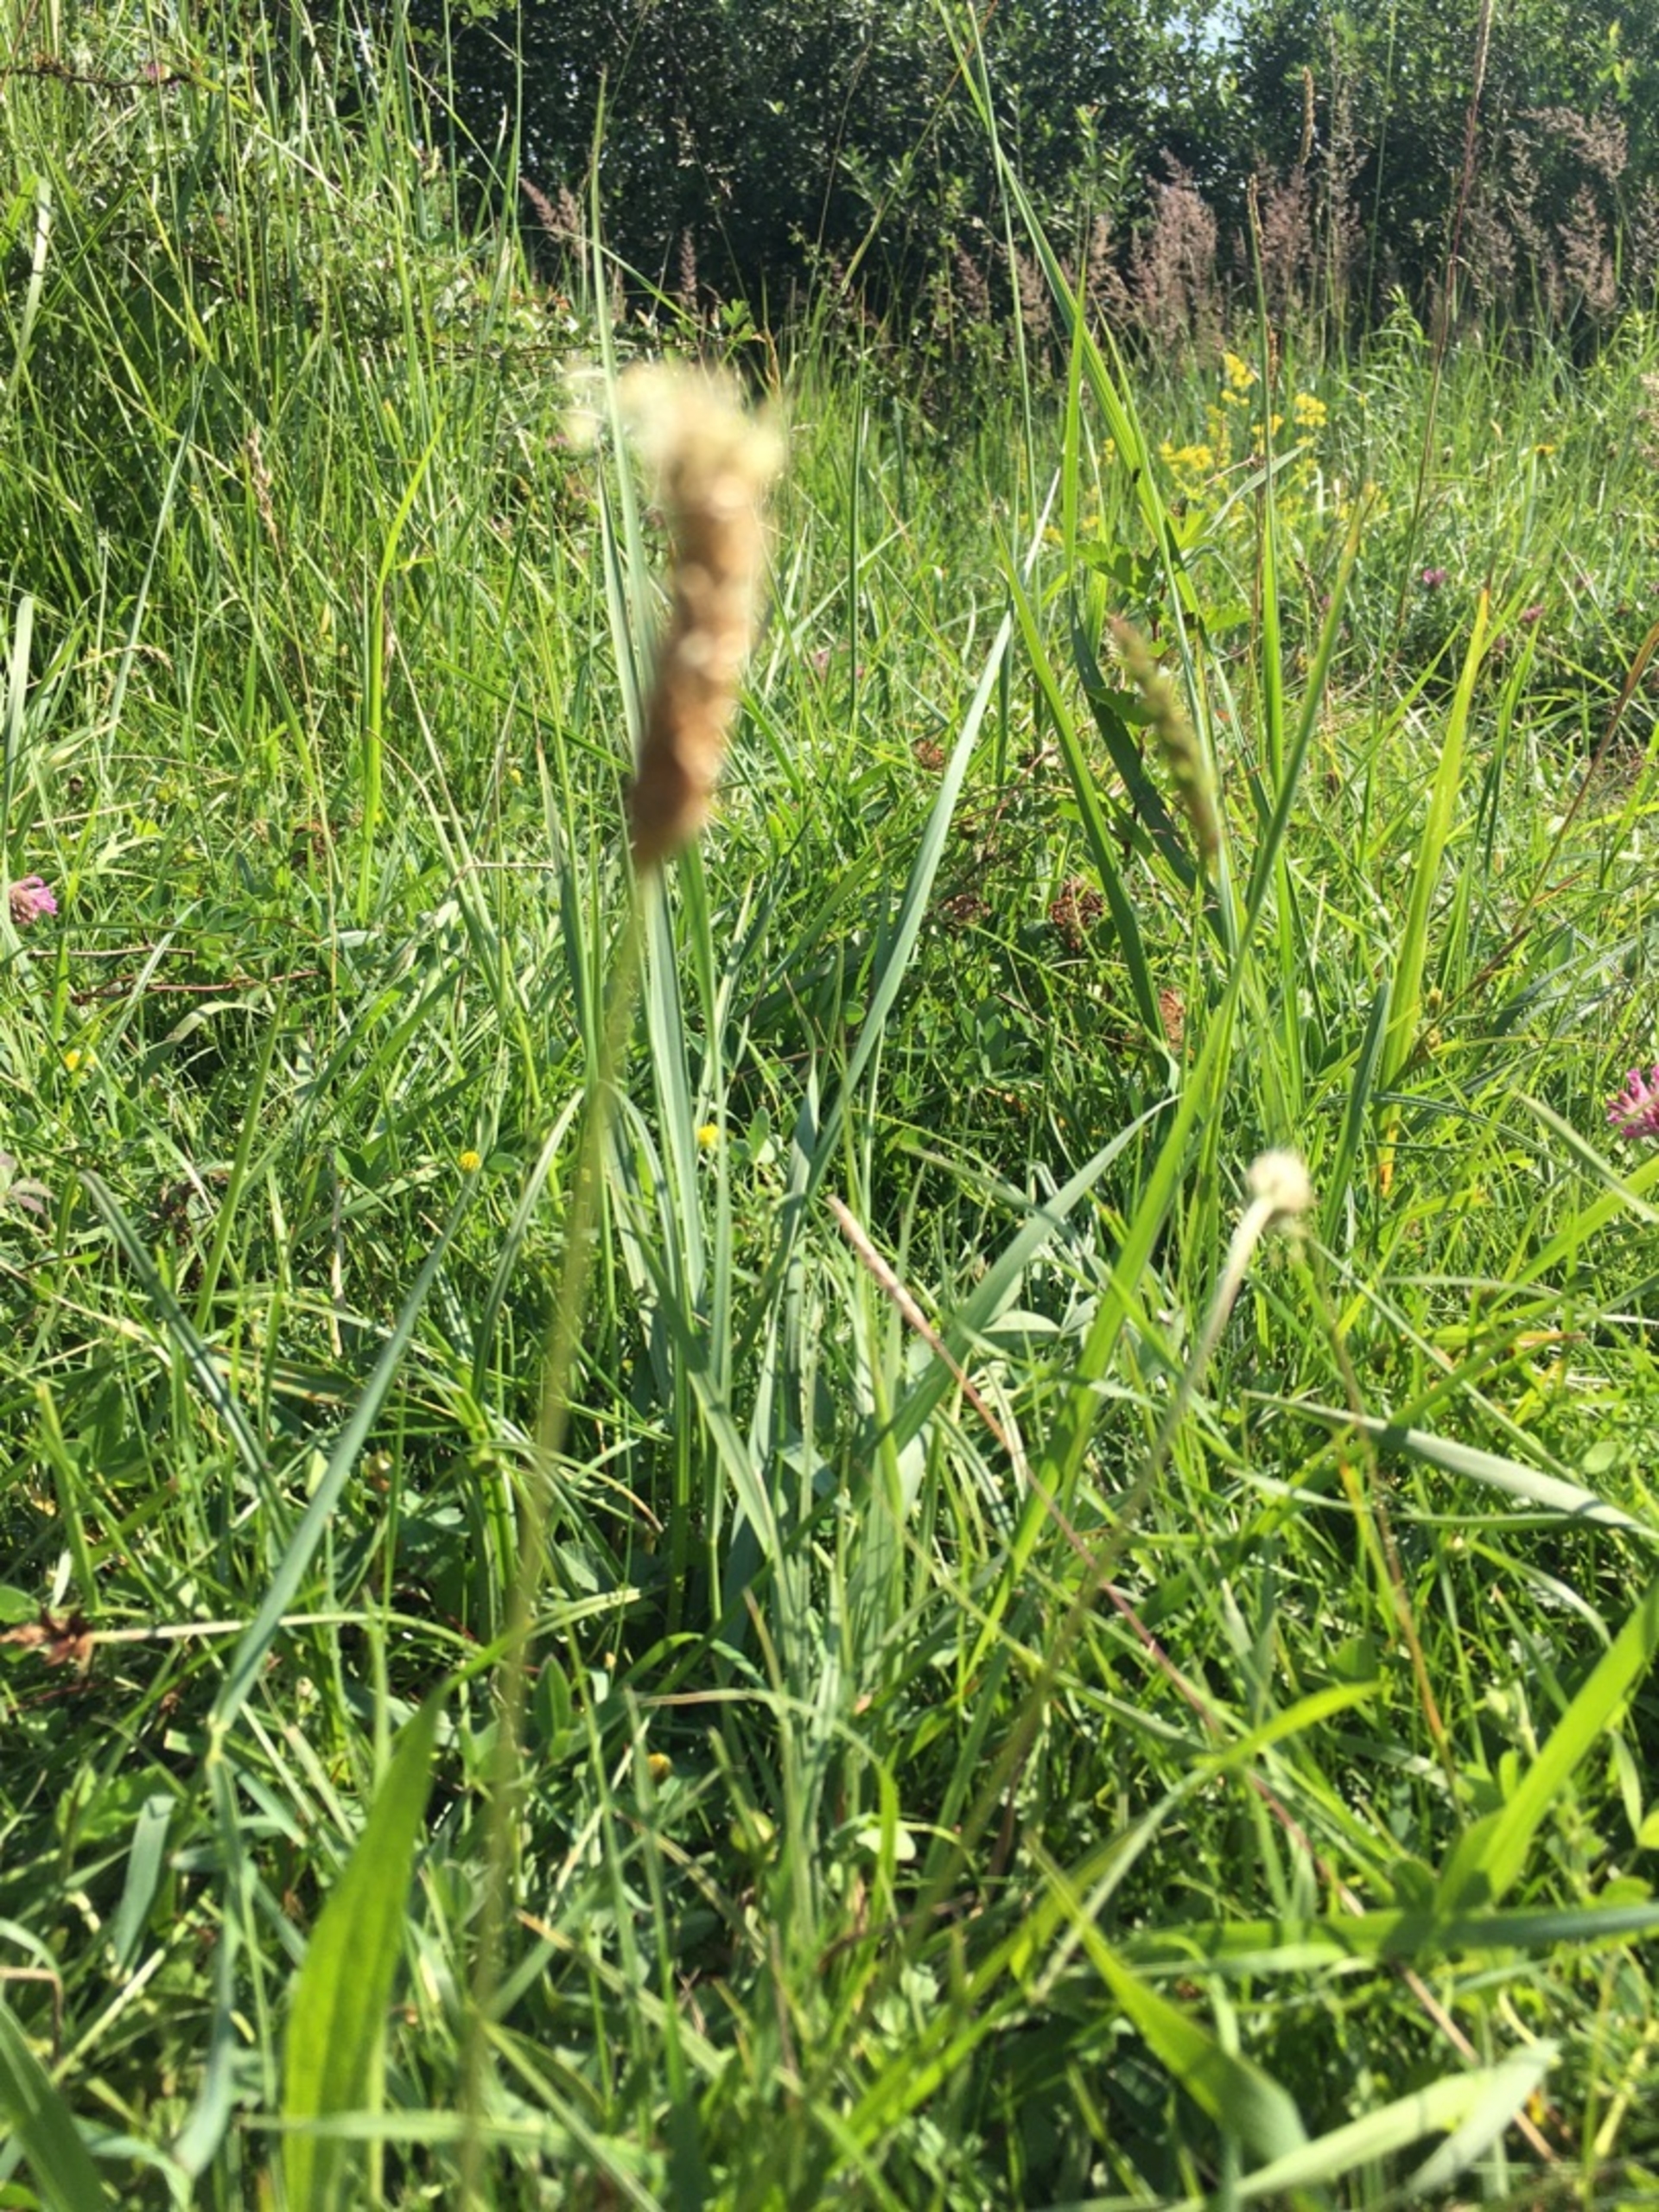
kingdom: Plantae
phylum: Tracheophyta
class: Magnoliopsida
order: Lamiales
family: Plantaginaceae
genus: Plantago
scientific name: Plantago lanceolata
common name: Lancet-vejbred
